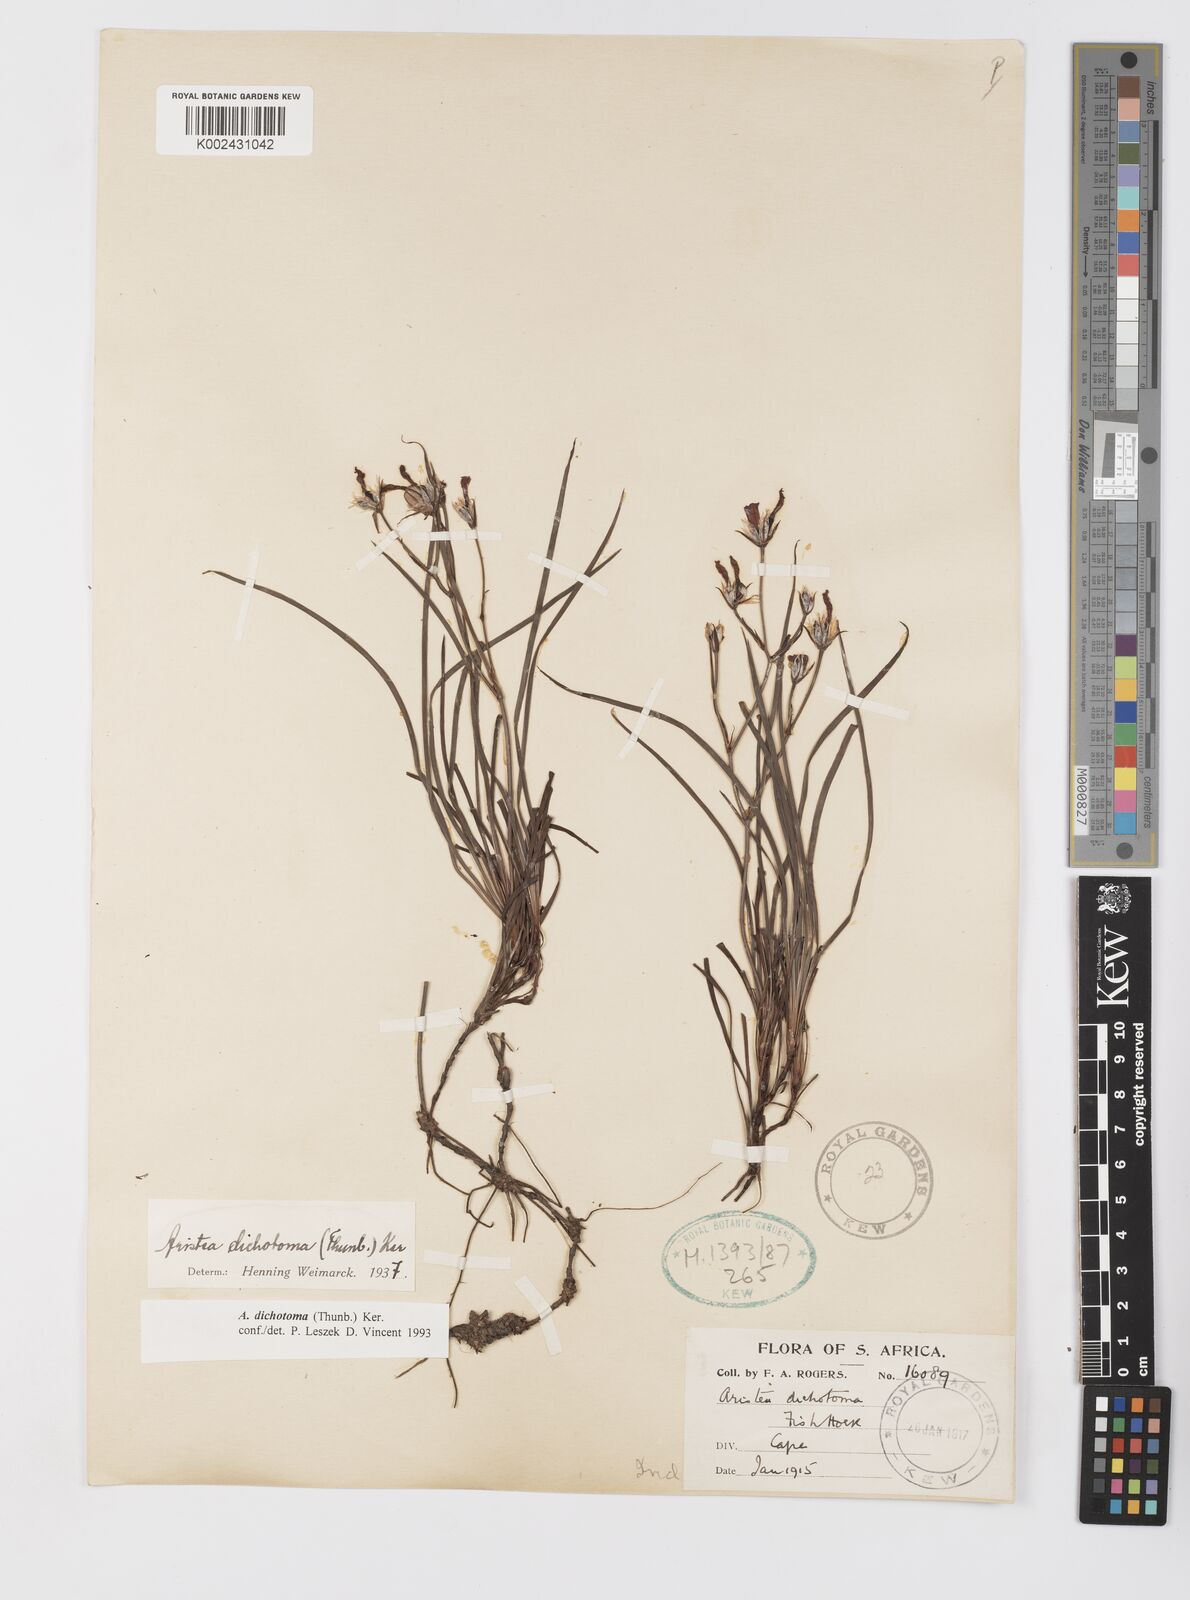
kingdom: Plantae
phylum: Tracheophyta
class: Liliopsida
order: Asparagales
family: Iridaceae
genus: Aristea
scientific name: Aristea dichotoma
